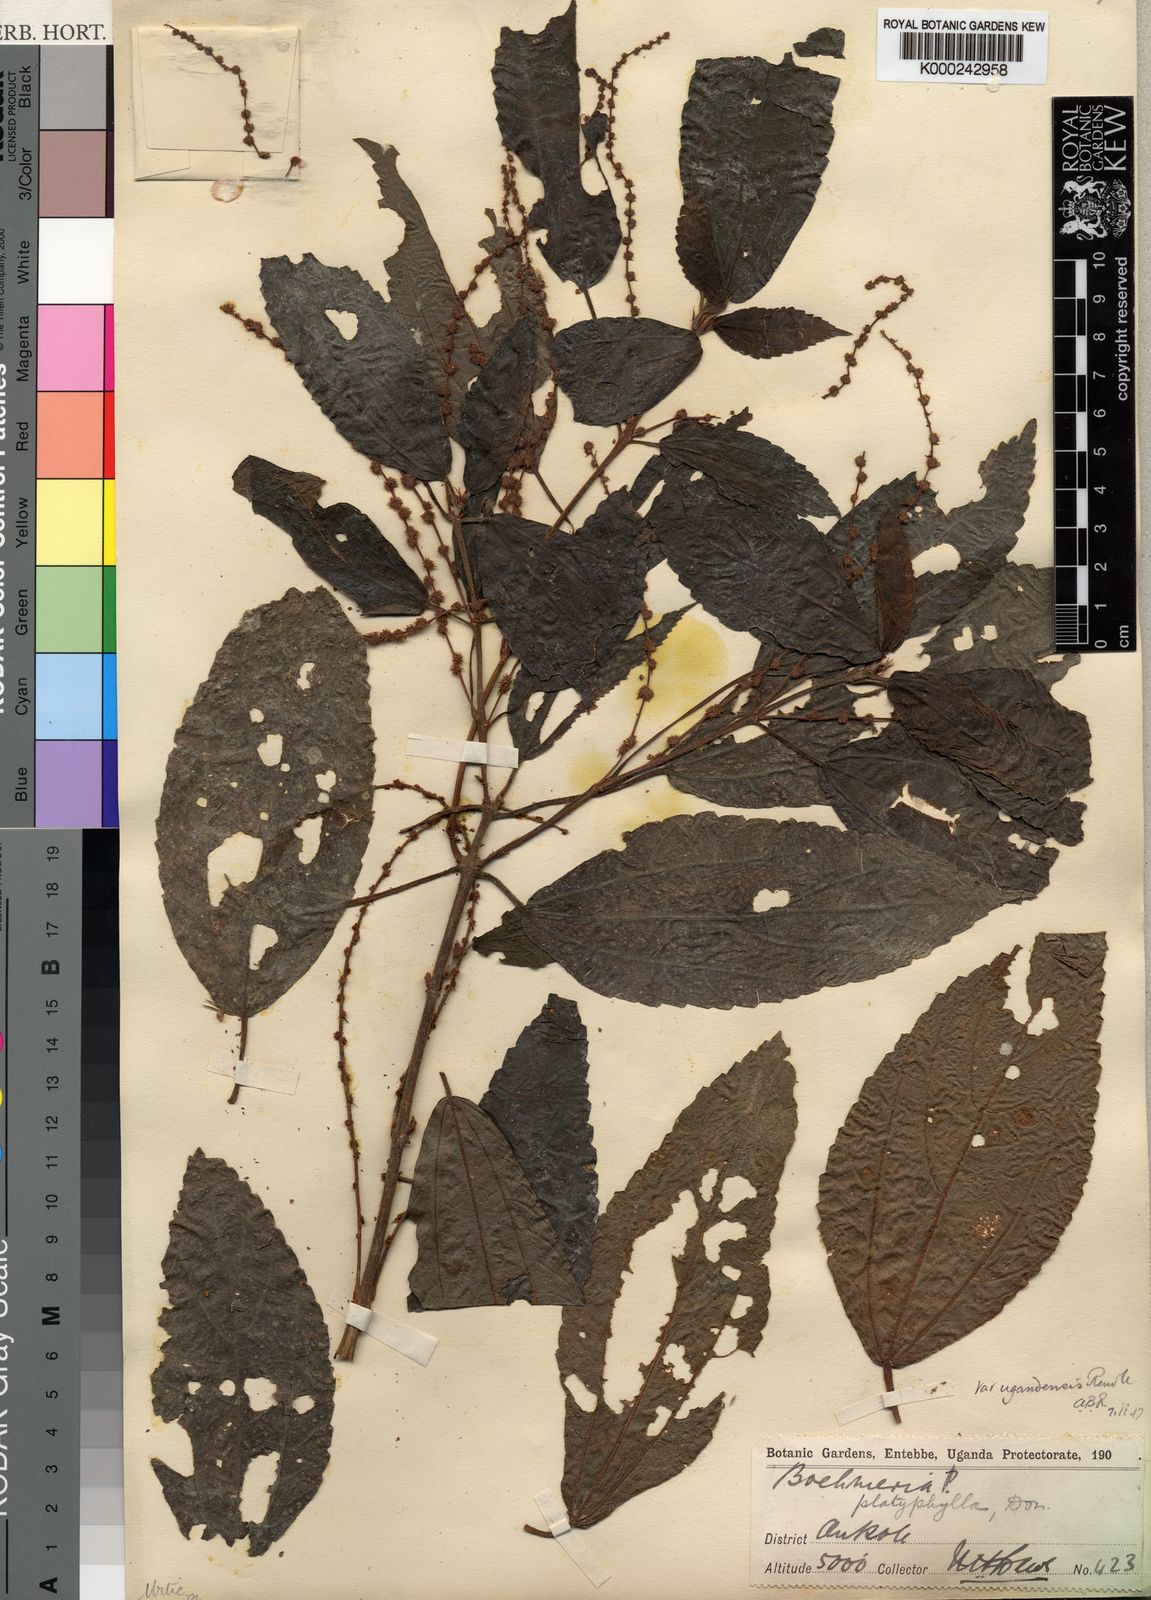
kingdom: Plantae
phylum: Tracheophyta
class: Magnoliopsida
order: Rosales
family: Urticaceae
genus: Boehmeria
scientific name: Boehmeria
